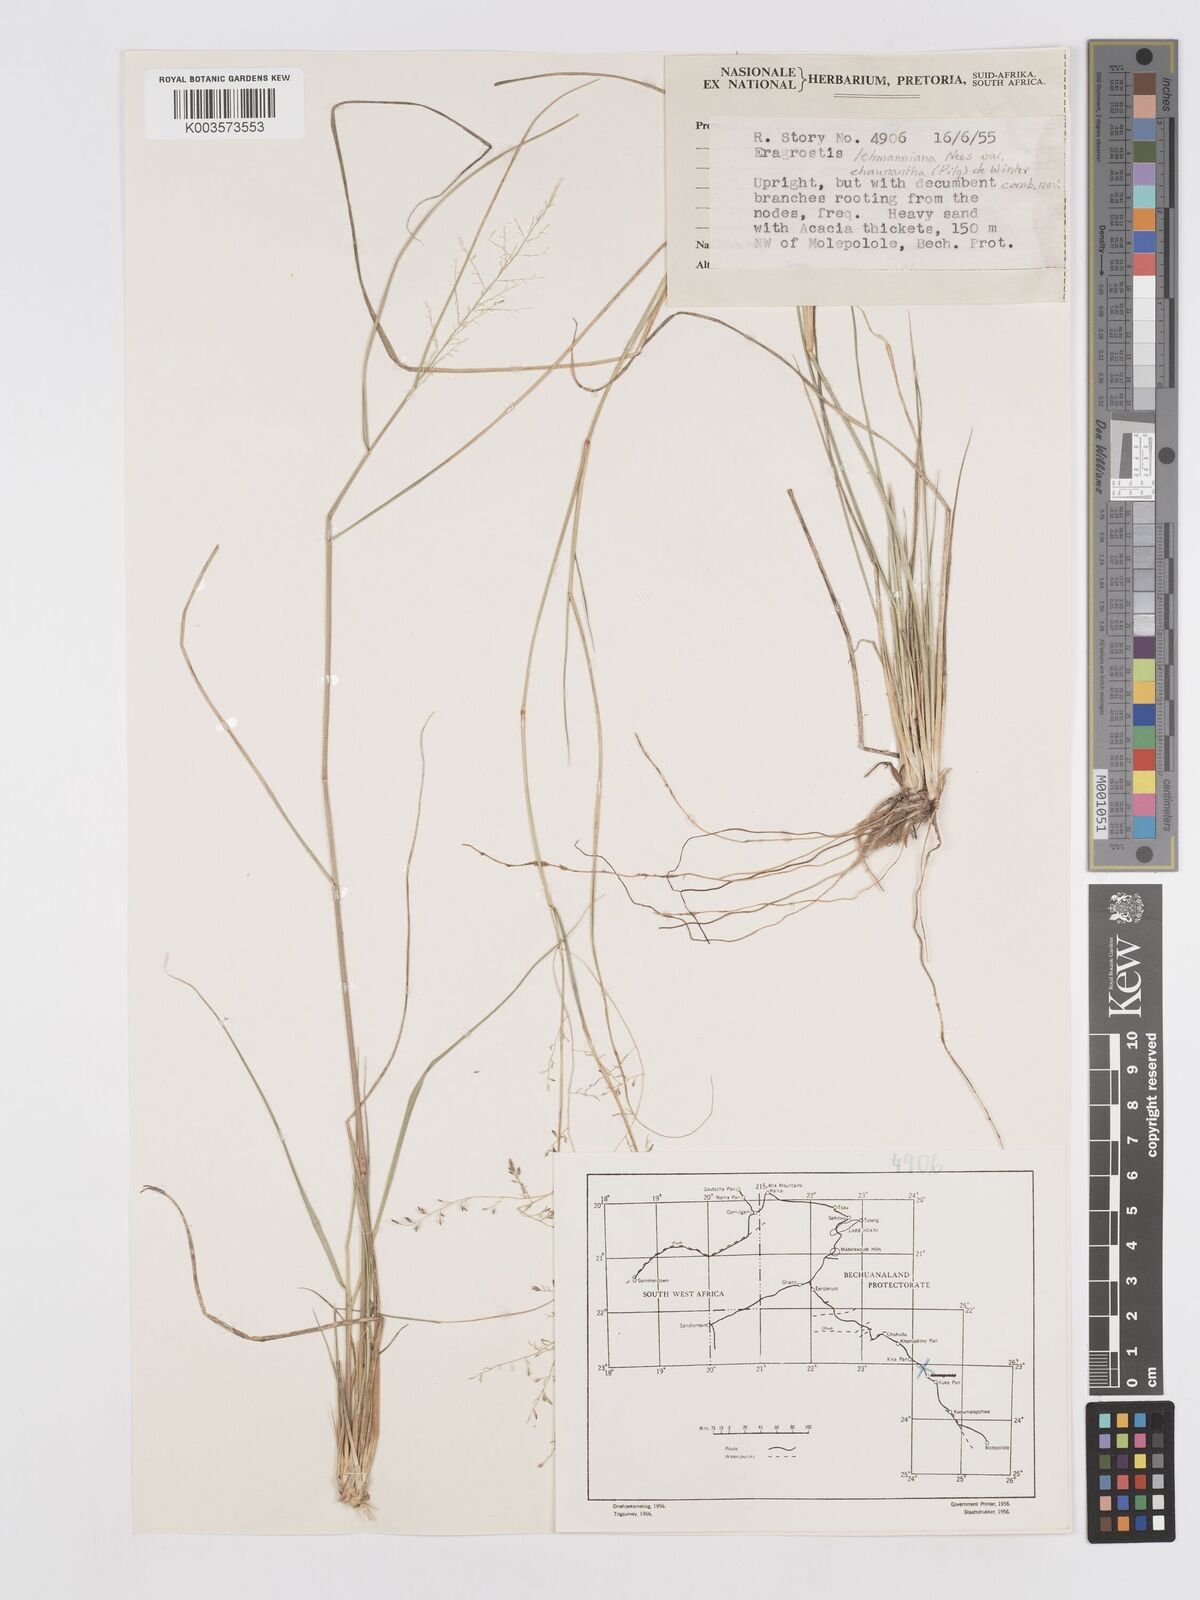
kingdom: Plantae
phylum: Tracheophyta
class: Liliopsida
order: Poales
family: Poaceae
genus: Eragrostis
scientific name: Eragrostis lehmanniana
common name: Lehmann lovegrass
